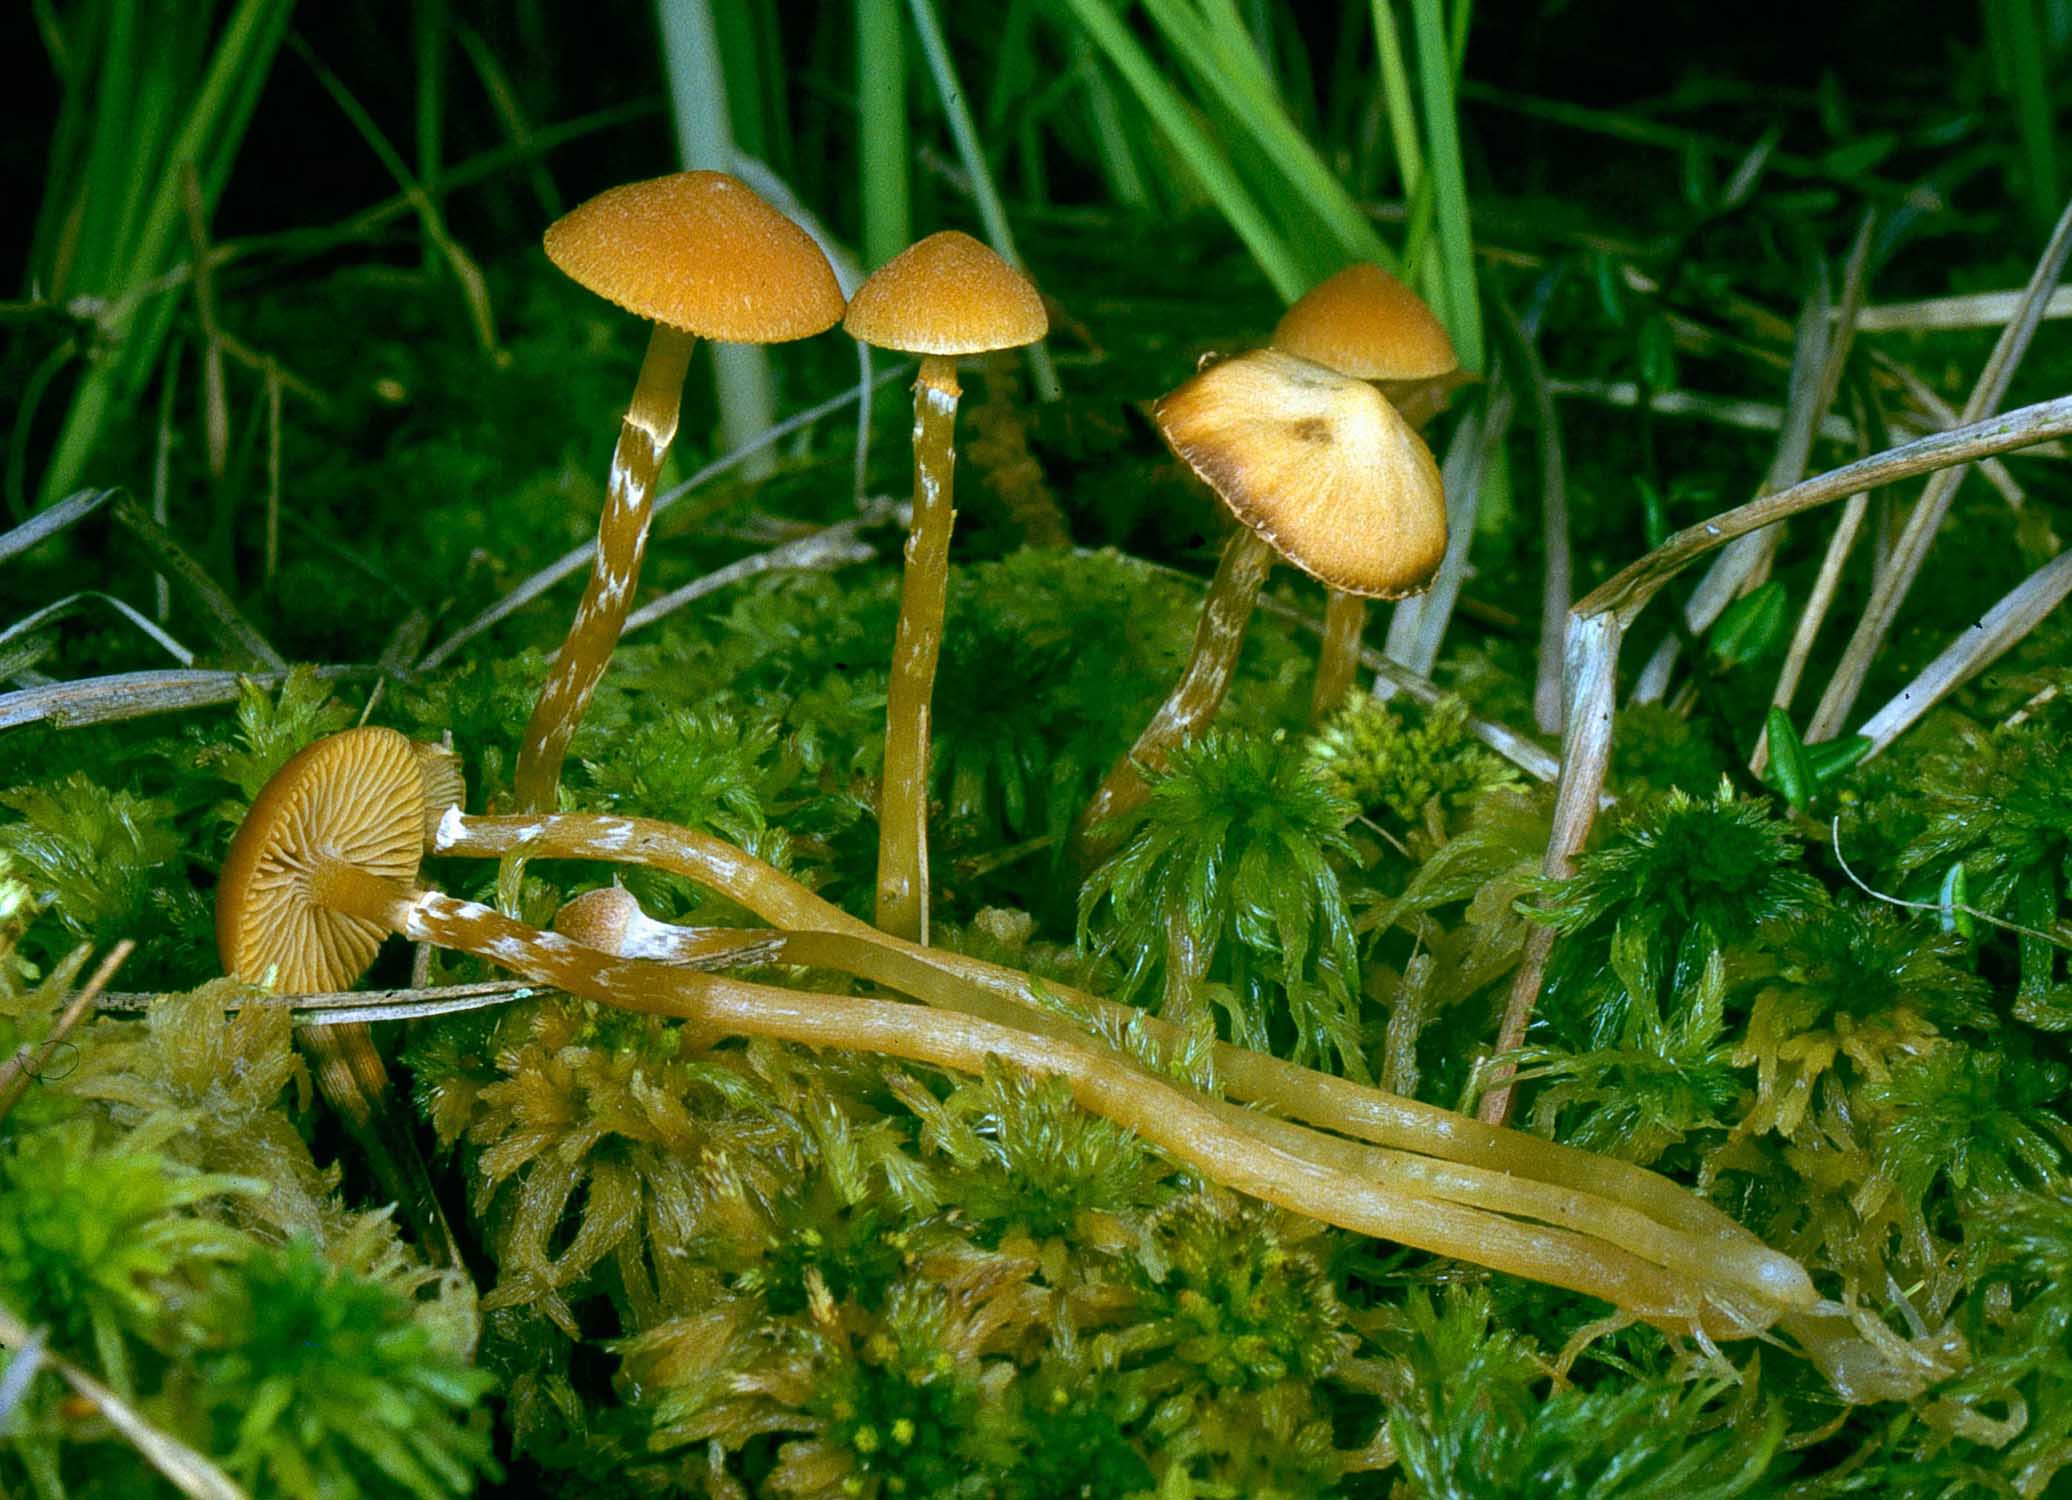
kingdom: Fungi
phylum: Basidiomycota
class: Agaricomycetes
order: Agaricales
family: Hymenogastraceae
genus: Galerina
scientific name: Galerina paludosa
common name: mose-hjelmhat
